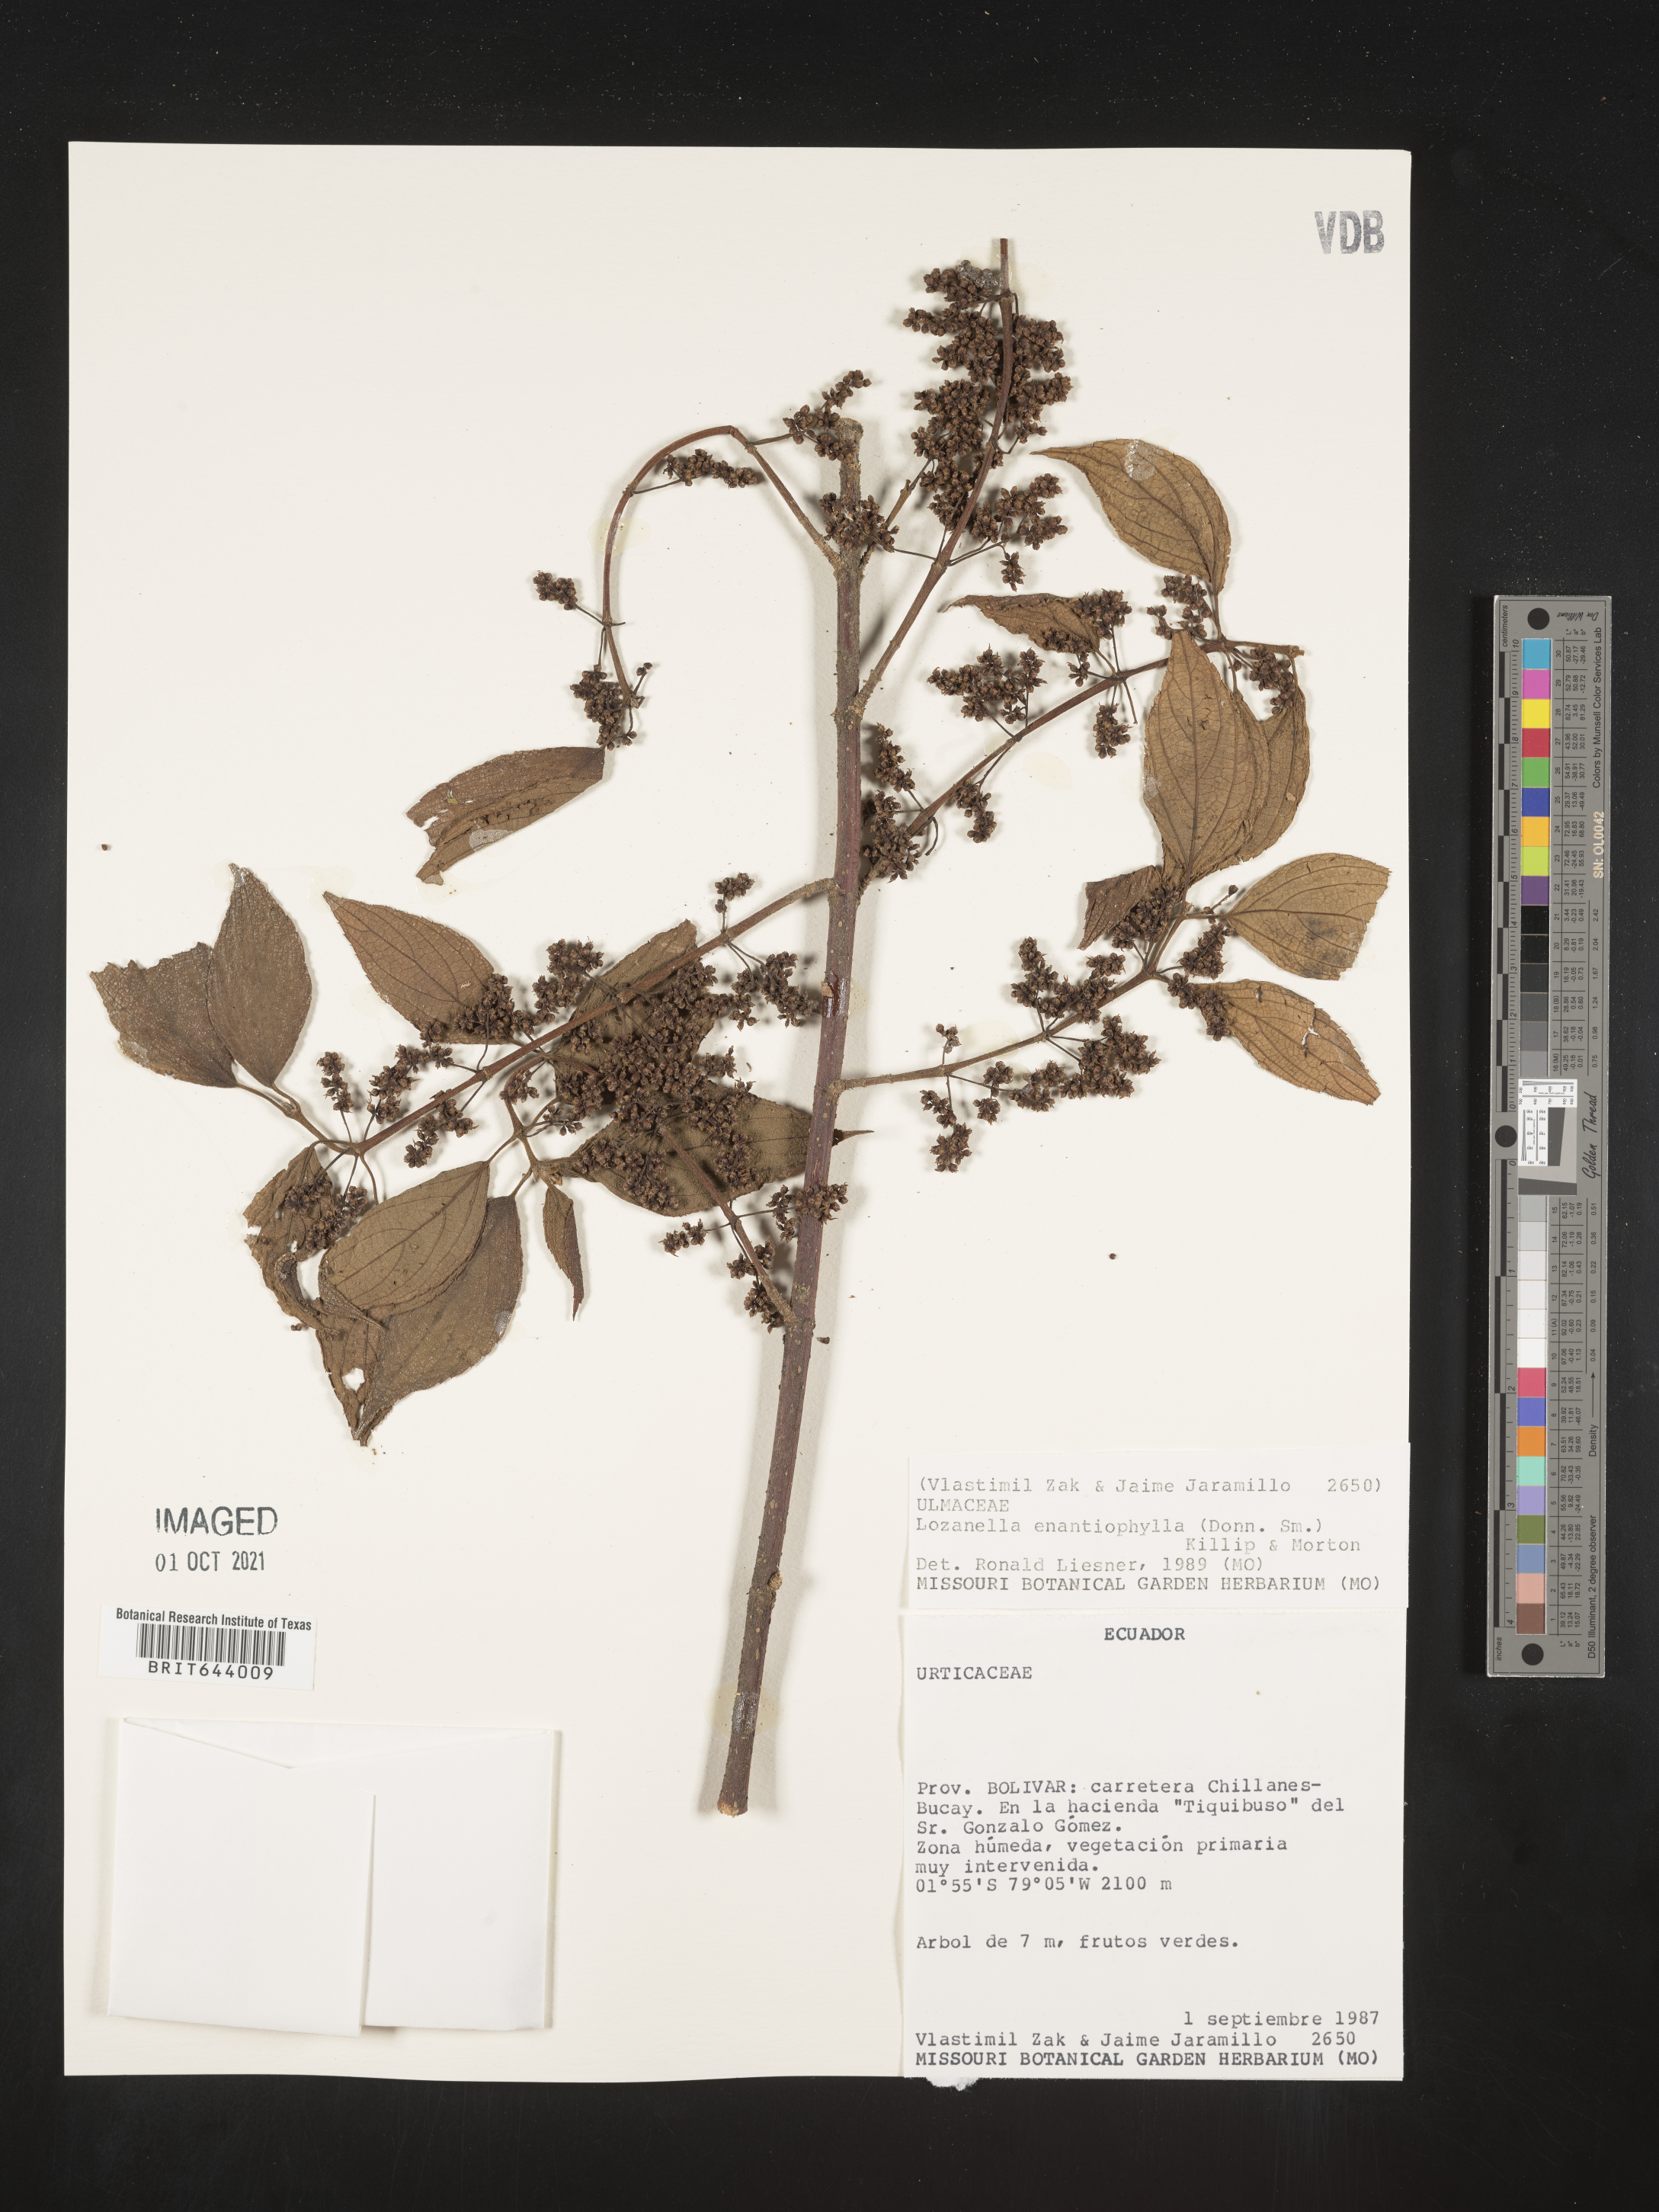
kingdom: Plantae
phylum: Tracheophyta
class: Magnoliopsida
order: Rosales
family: Cannabaceae
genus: Lozanella
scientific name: Lozanella enantiophylla
